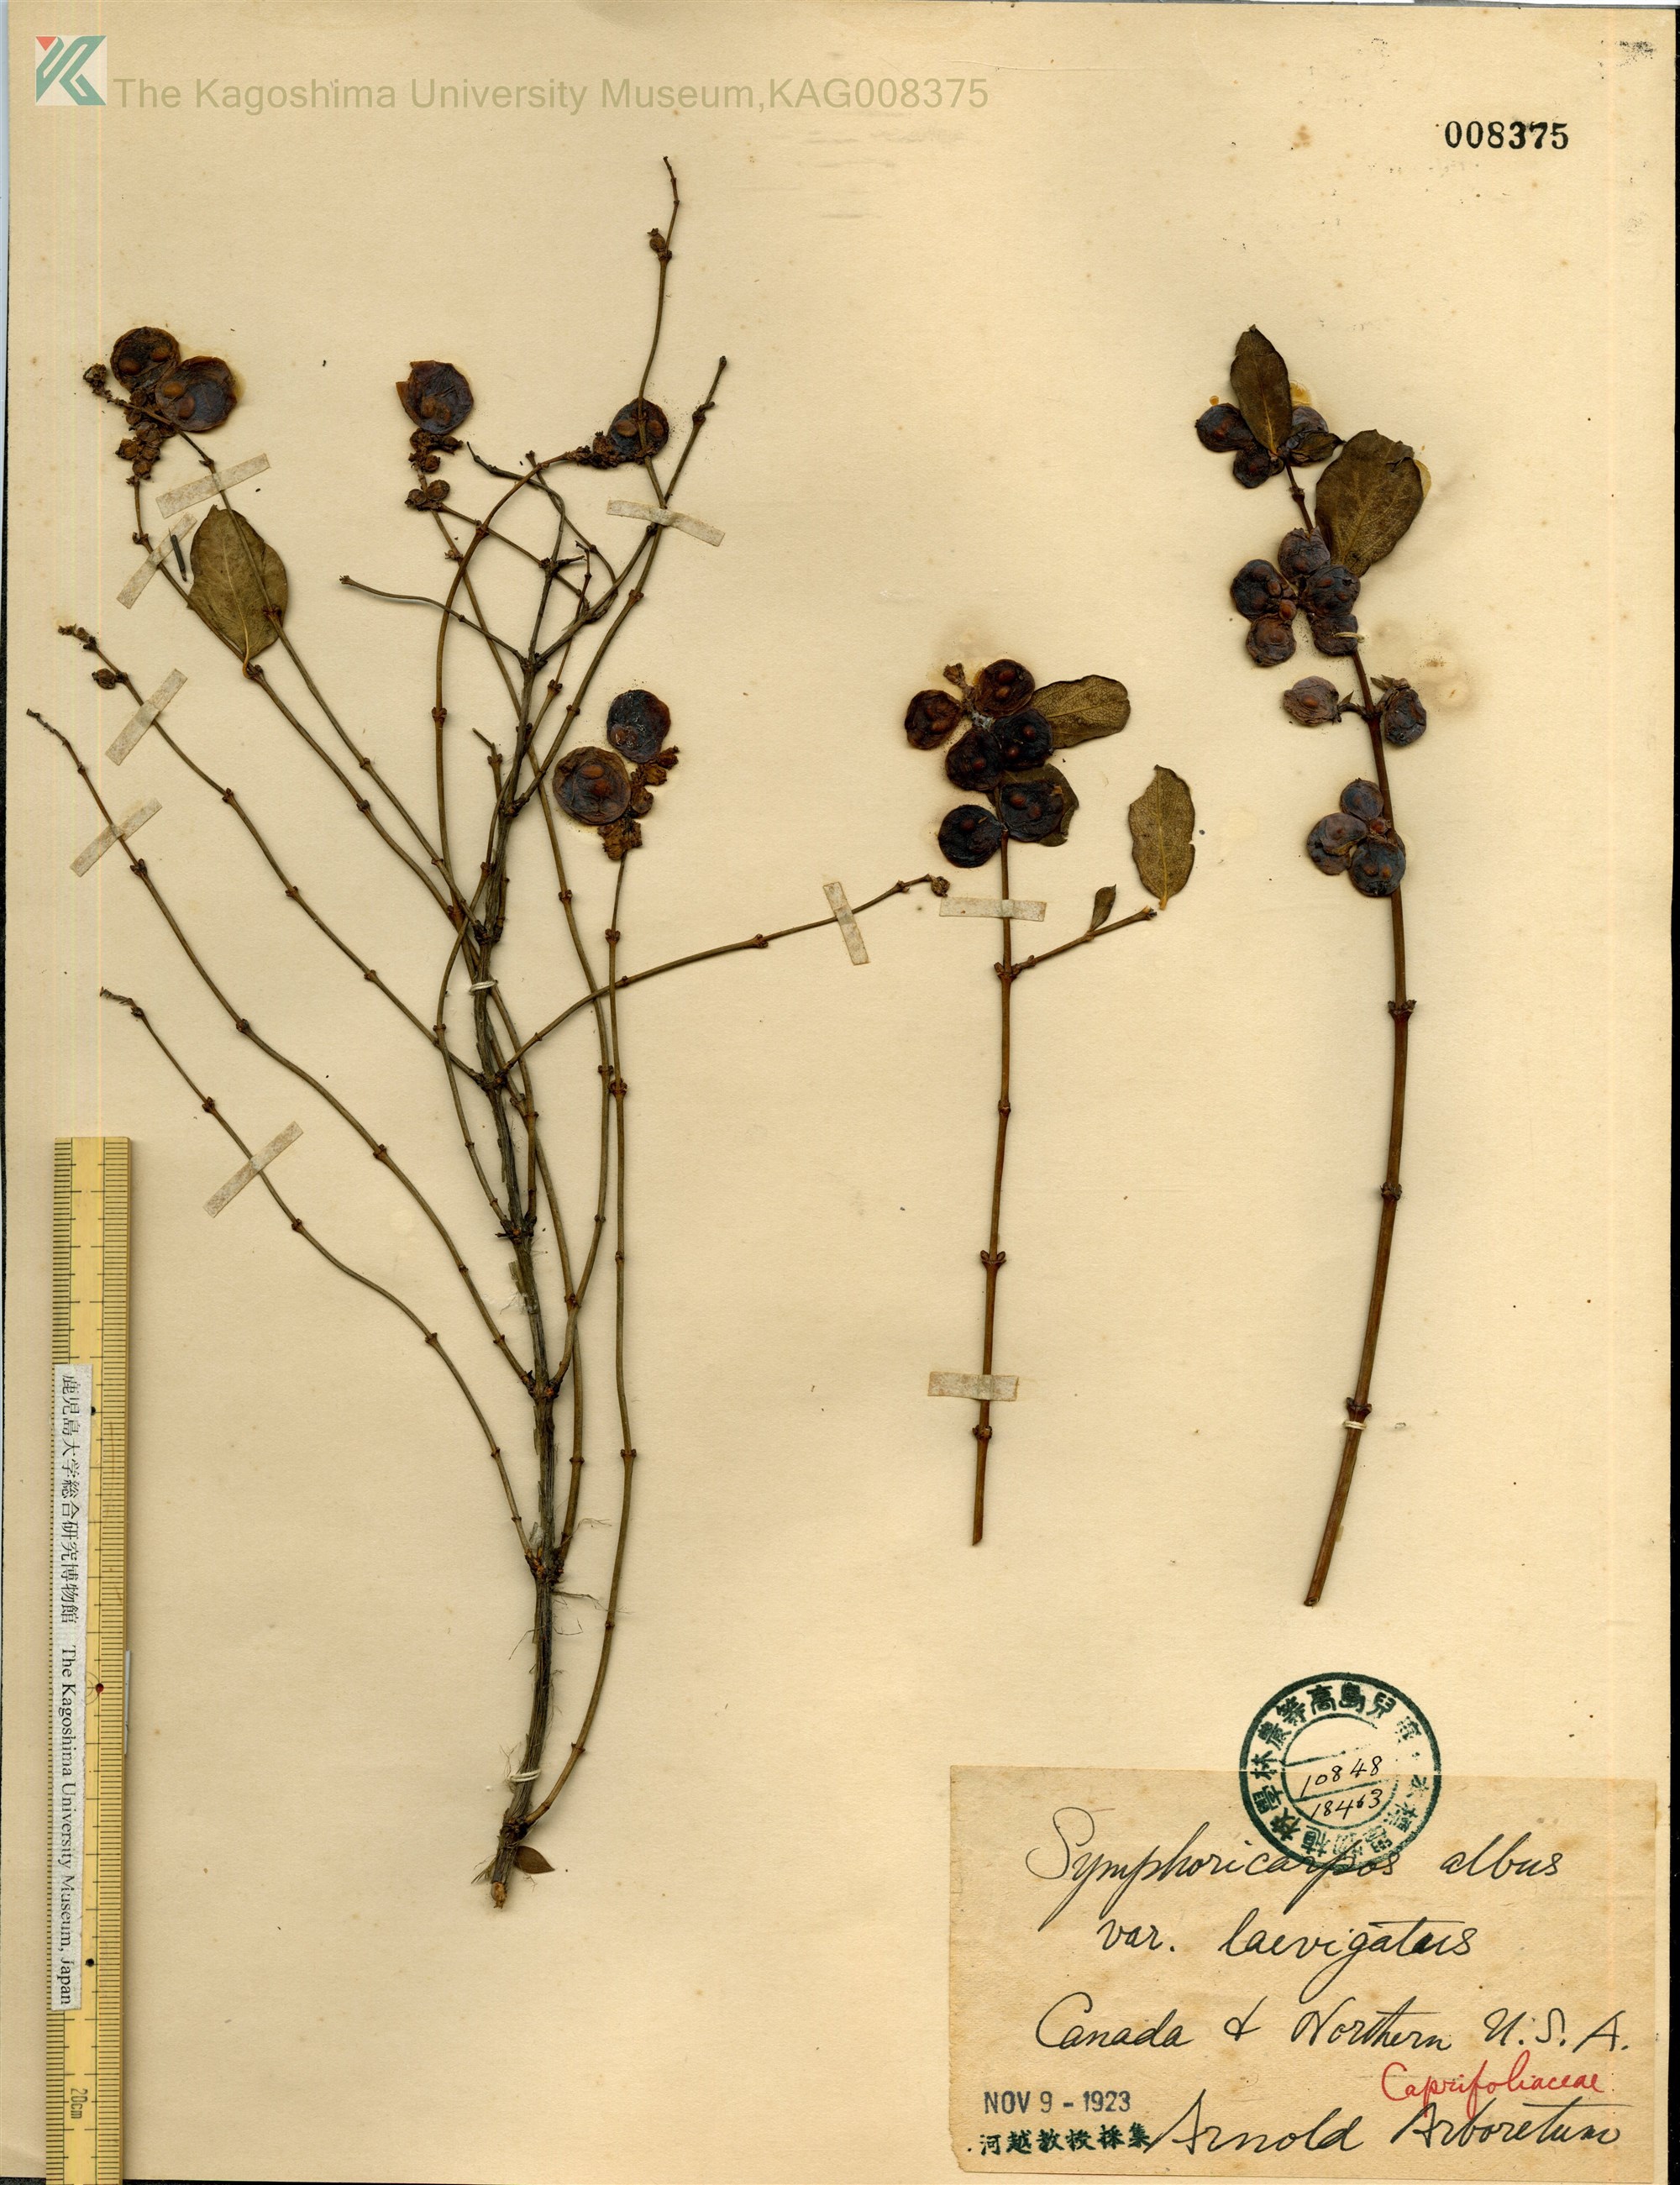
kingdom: Plantae
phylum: Tracheophyta
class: Magnoliopsida
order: Dipsacales
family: Caprifoliaceae
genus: Symphoricarpos
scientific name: Symphoricarpos albus
